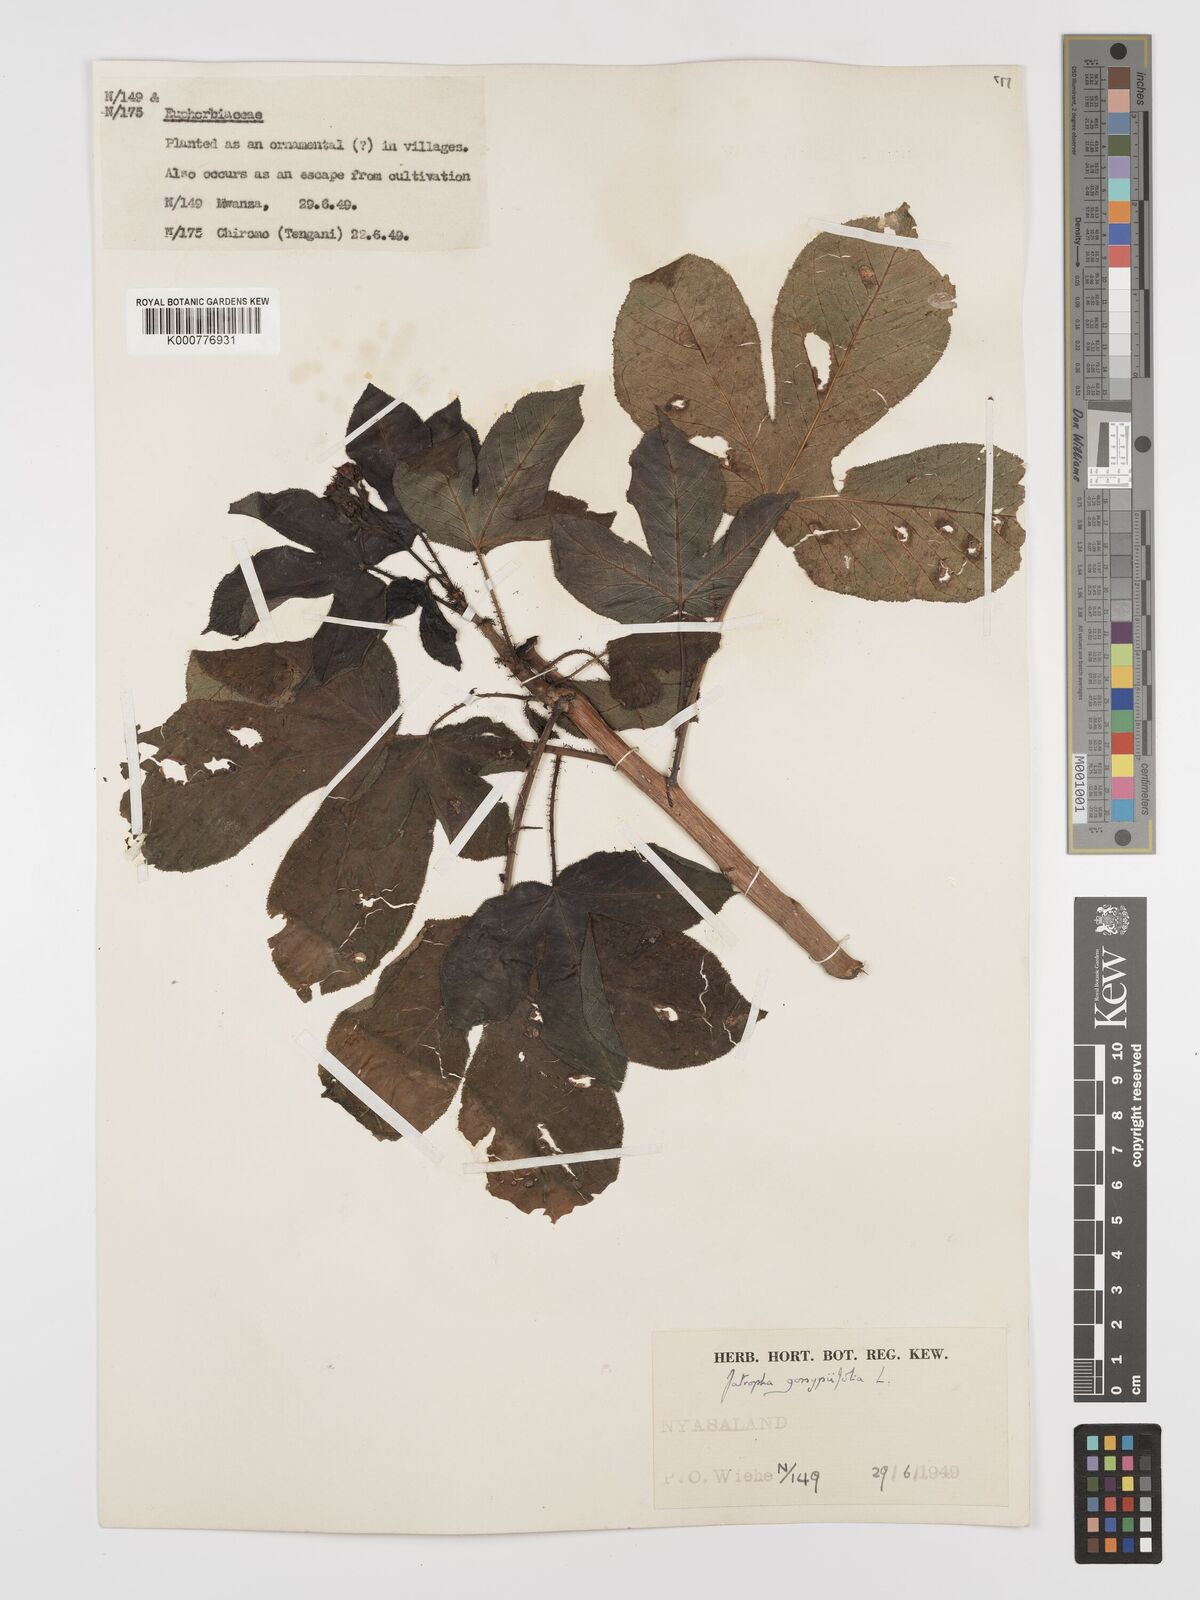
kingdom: Plantae
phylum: Tracheophyta
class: Magnoliopsida
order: Malpighiales
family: Euphorbiaceae
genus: Jatropha
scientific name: Jatropha gossypiifolia
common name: Bellyache bush
